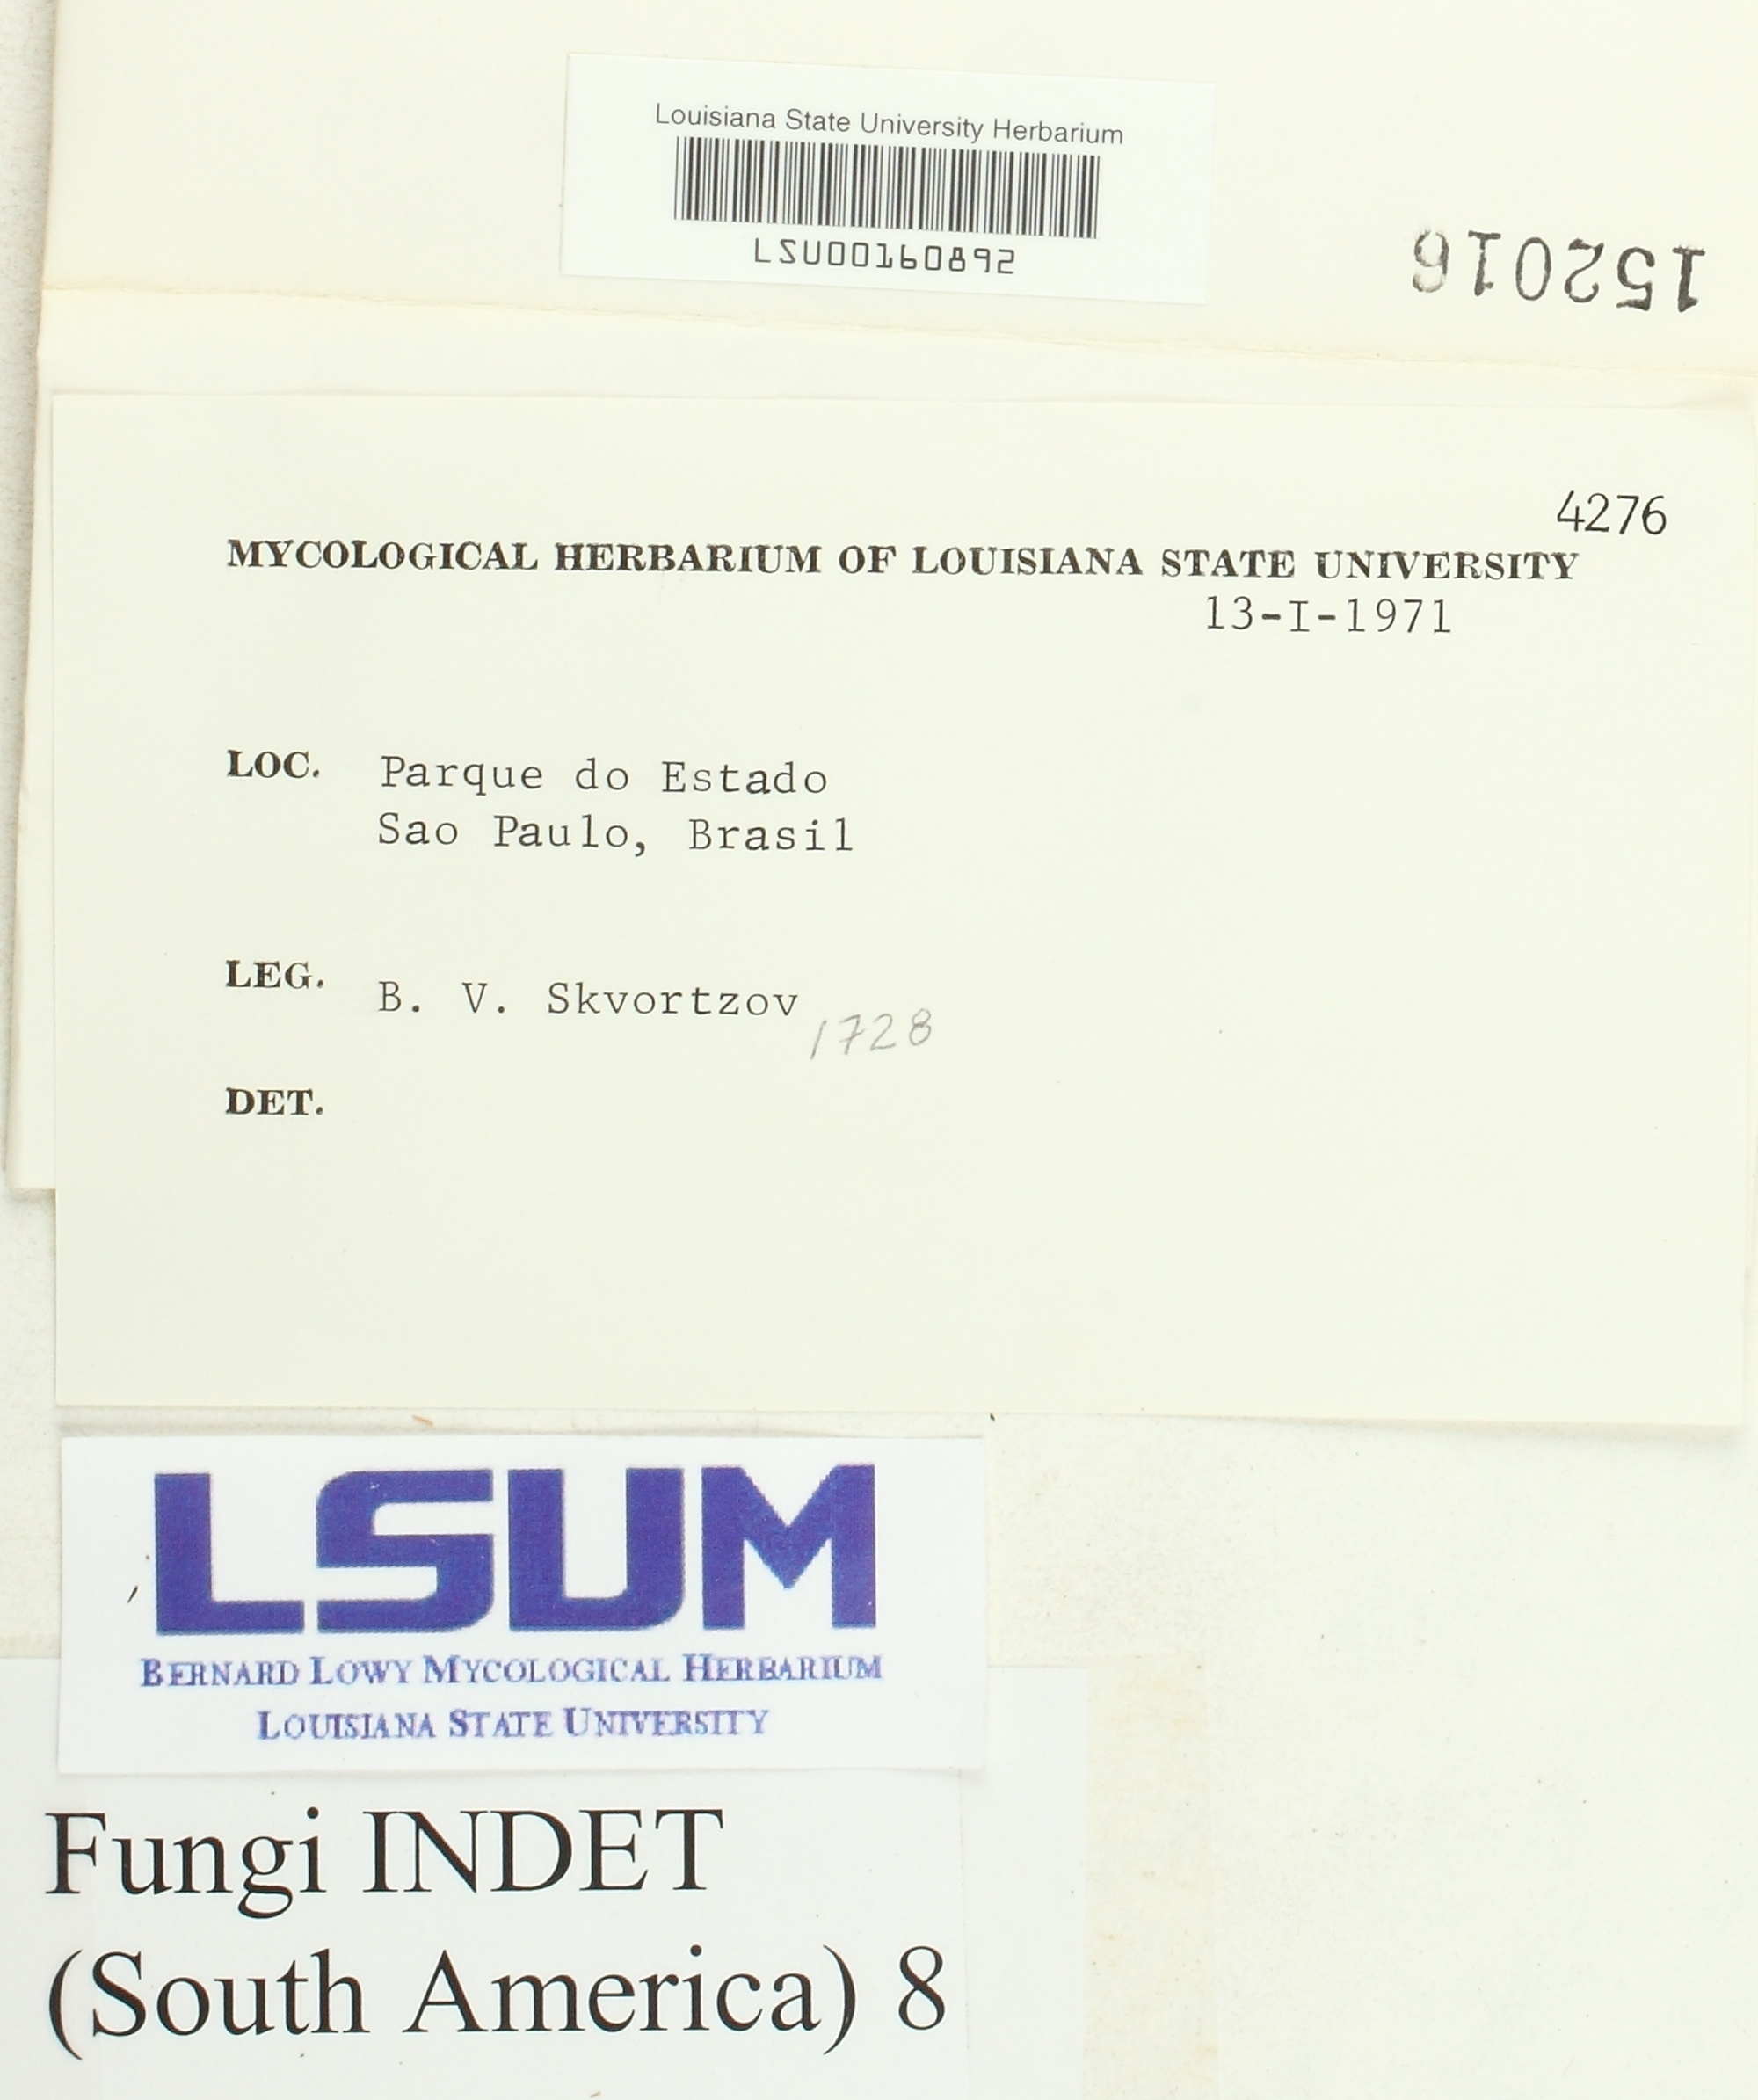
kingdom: Fungi
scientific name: Fungi
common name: Fungi
